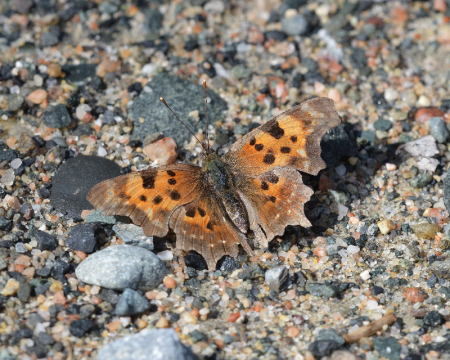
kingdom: Animalia
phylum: Arthropoda
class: Insecta
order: Lepidoptera
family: Nymphalidae
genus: Polygonia
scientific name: Polygonia faunus
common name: Green Comma
